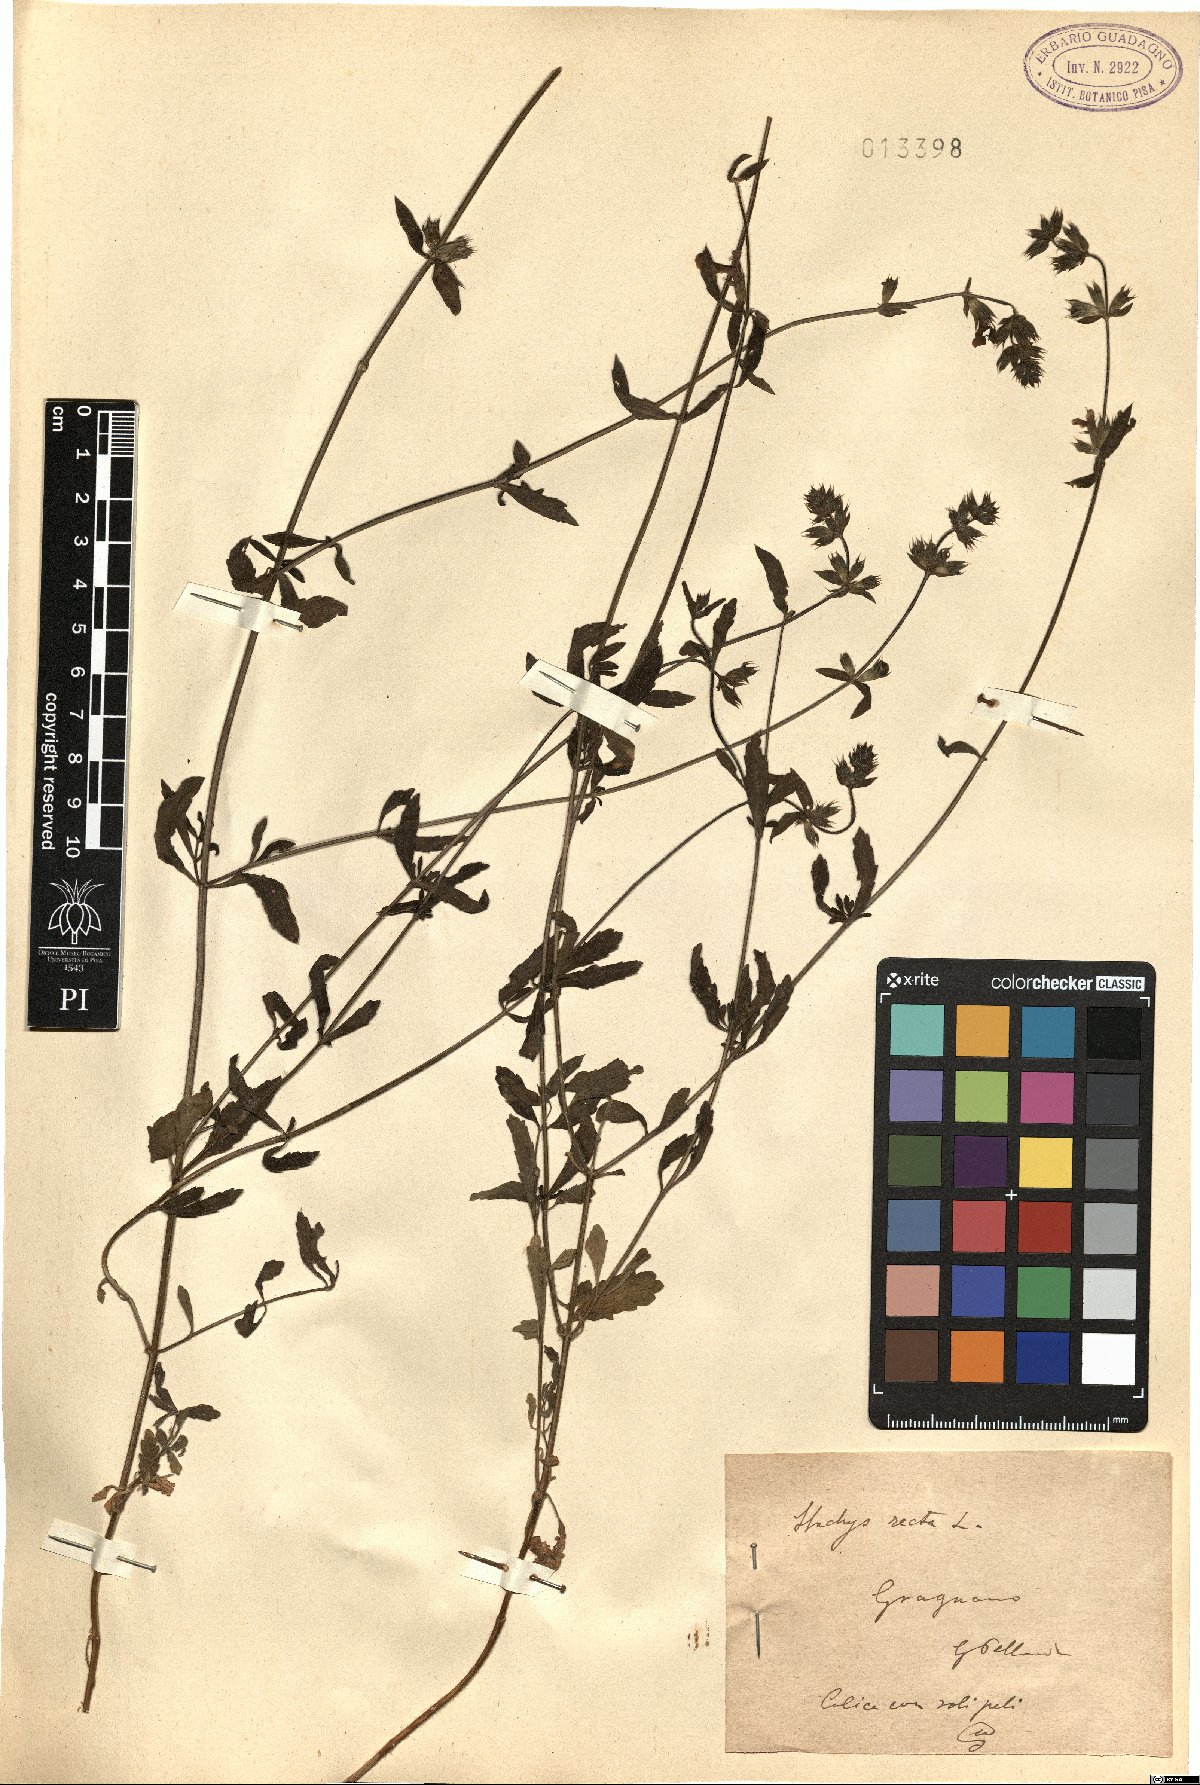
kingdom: Plantae
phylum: Tracheophyta
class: Magnoliopsida
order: Lamiales
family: Lamiaceae
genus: Stachys
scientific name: Stachys recta
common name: Perennial yellow-woundwort
